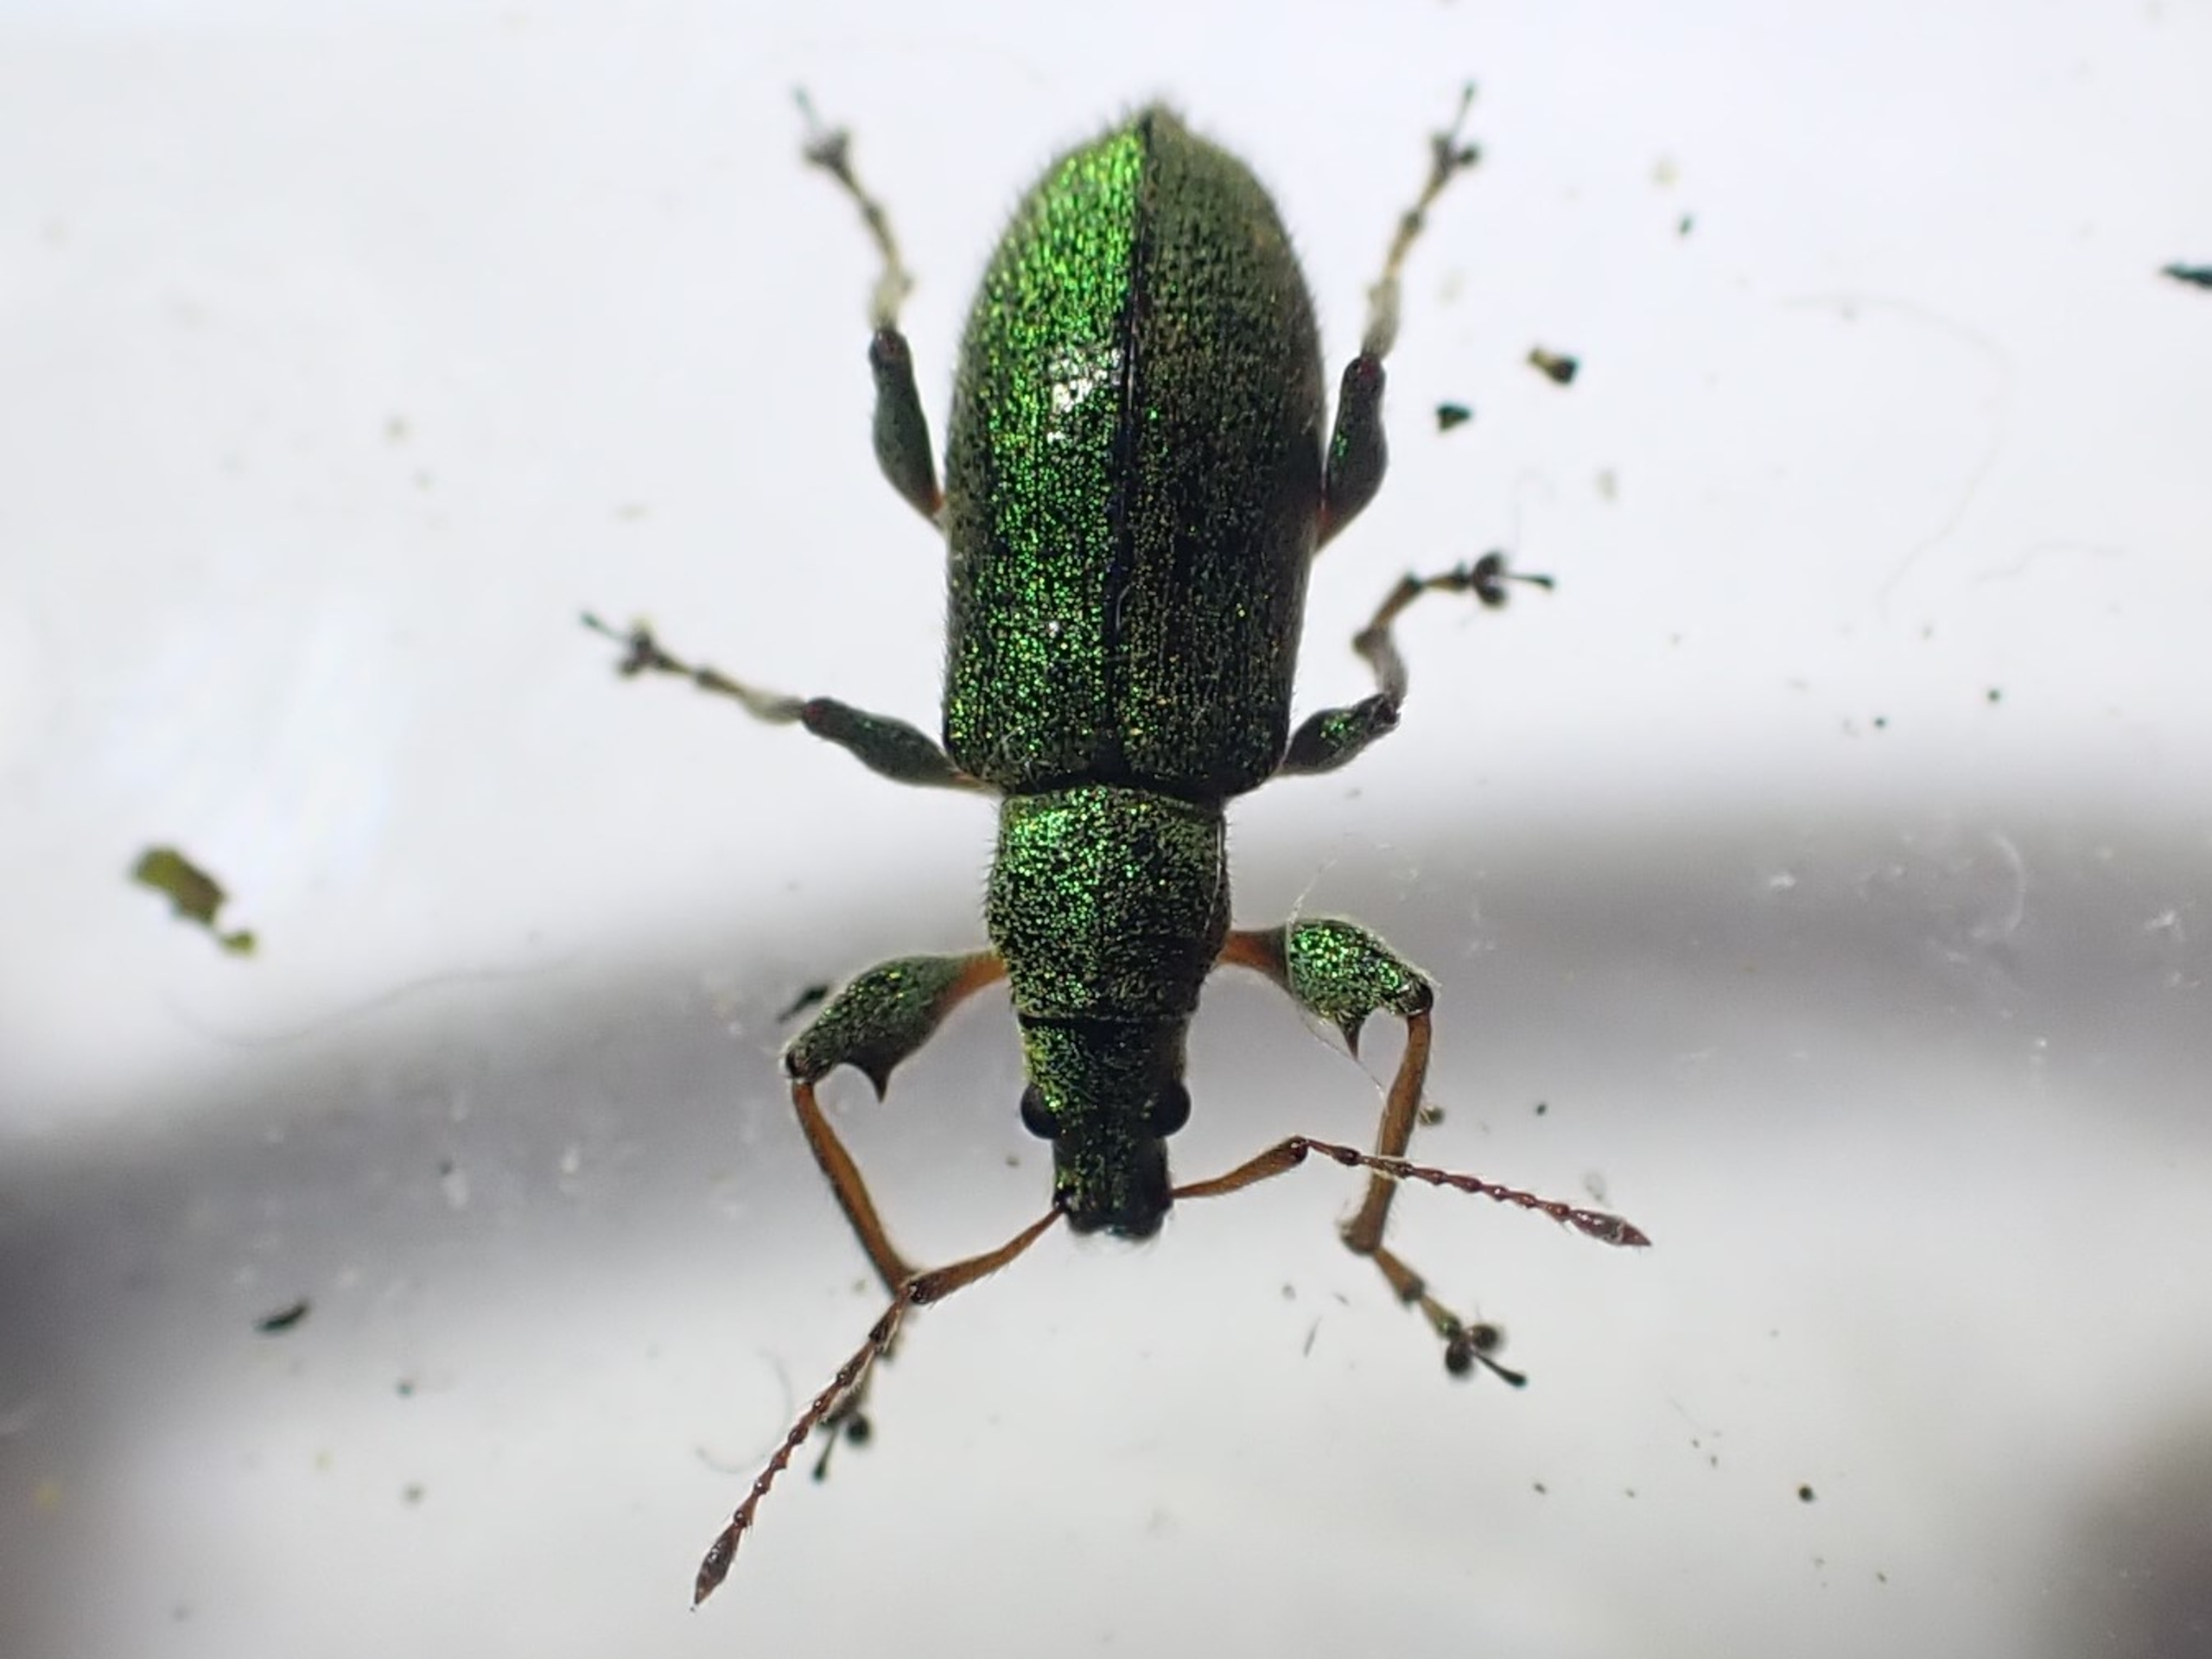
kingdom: Animalia
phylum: Arthropoda
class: Insecta
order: Coleoptera
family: Curculionidae
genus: Phyllobius
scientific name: Phyllobius arborator
